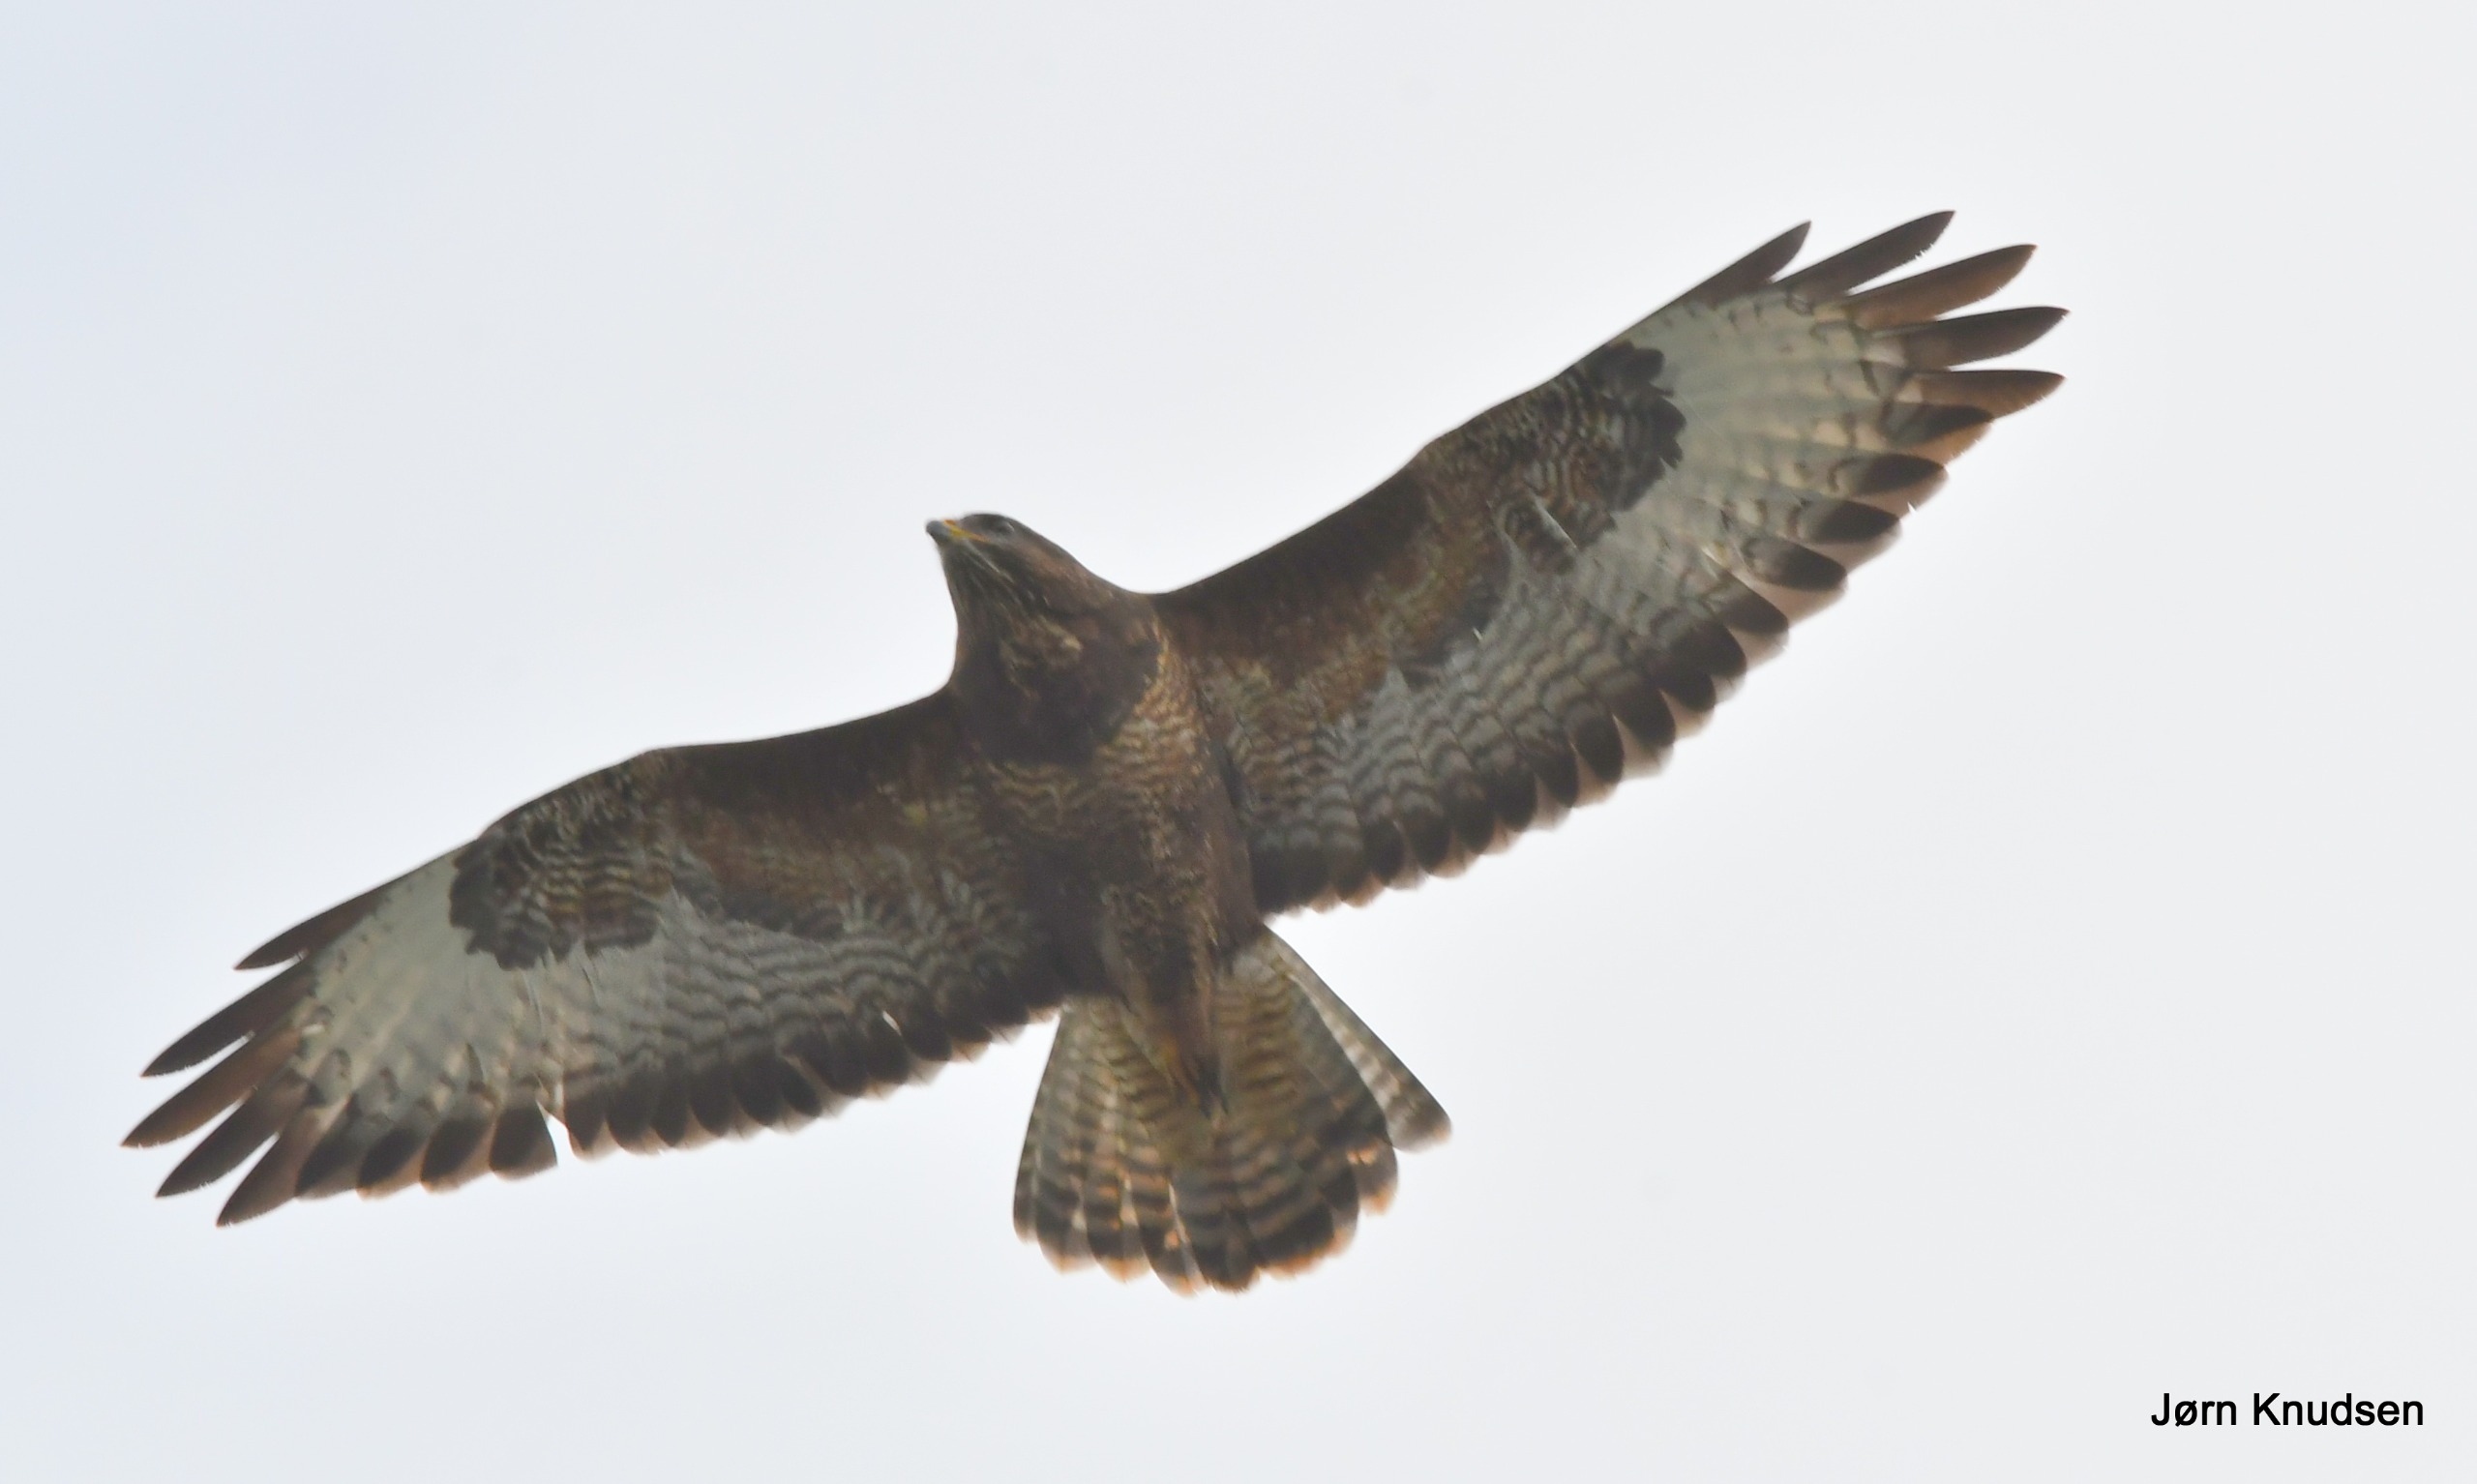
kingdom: Animalia
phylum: Chordata
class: Aves
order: Accipitriformes
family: Accipitridae
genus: Buteo
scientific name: Buteo buteo
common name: Musvåge
